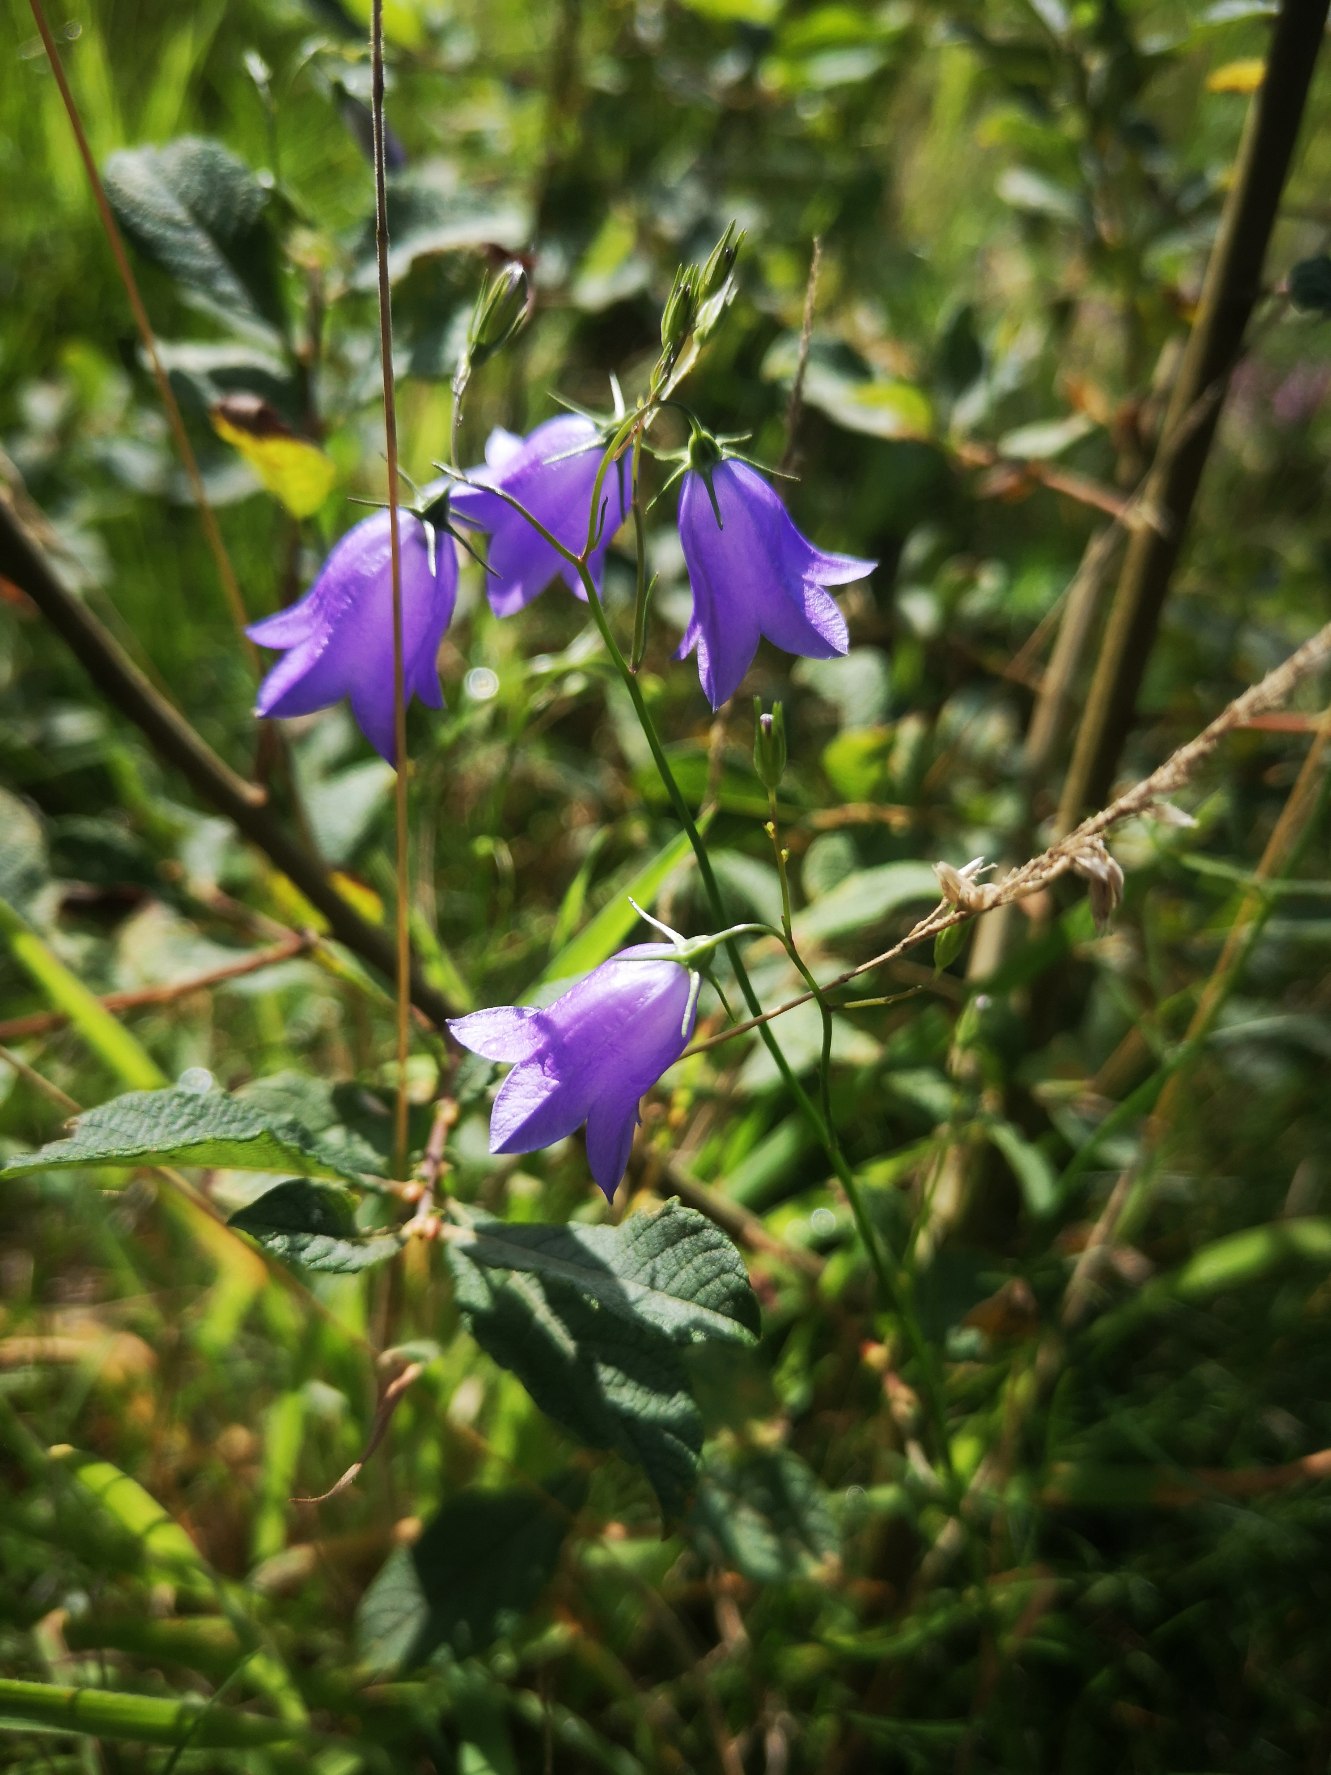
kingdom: Plantae
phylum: Tracheophyta
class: Magnoliopsida
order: Asterales
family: Campanulaceae
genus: Campanula
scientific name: Campanula rotundifolia
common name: Liden klokke
